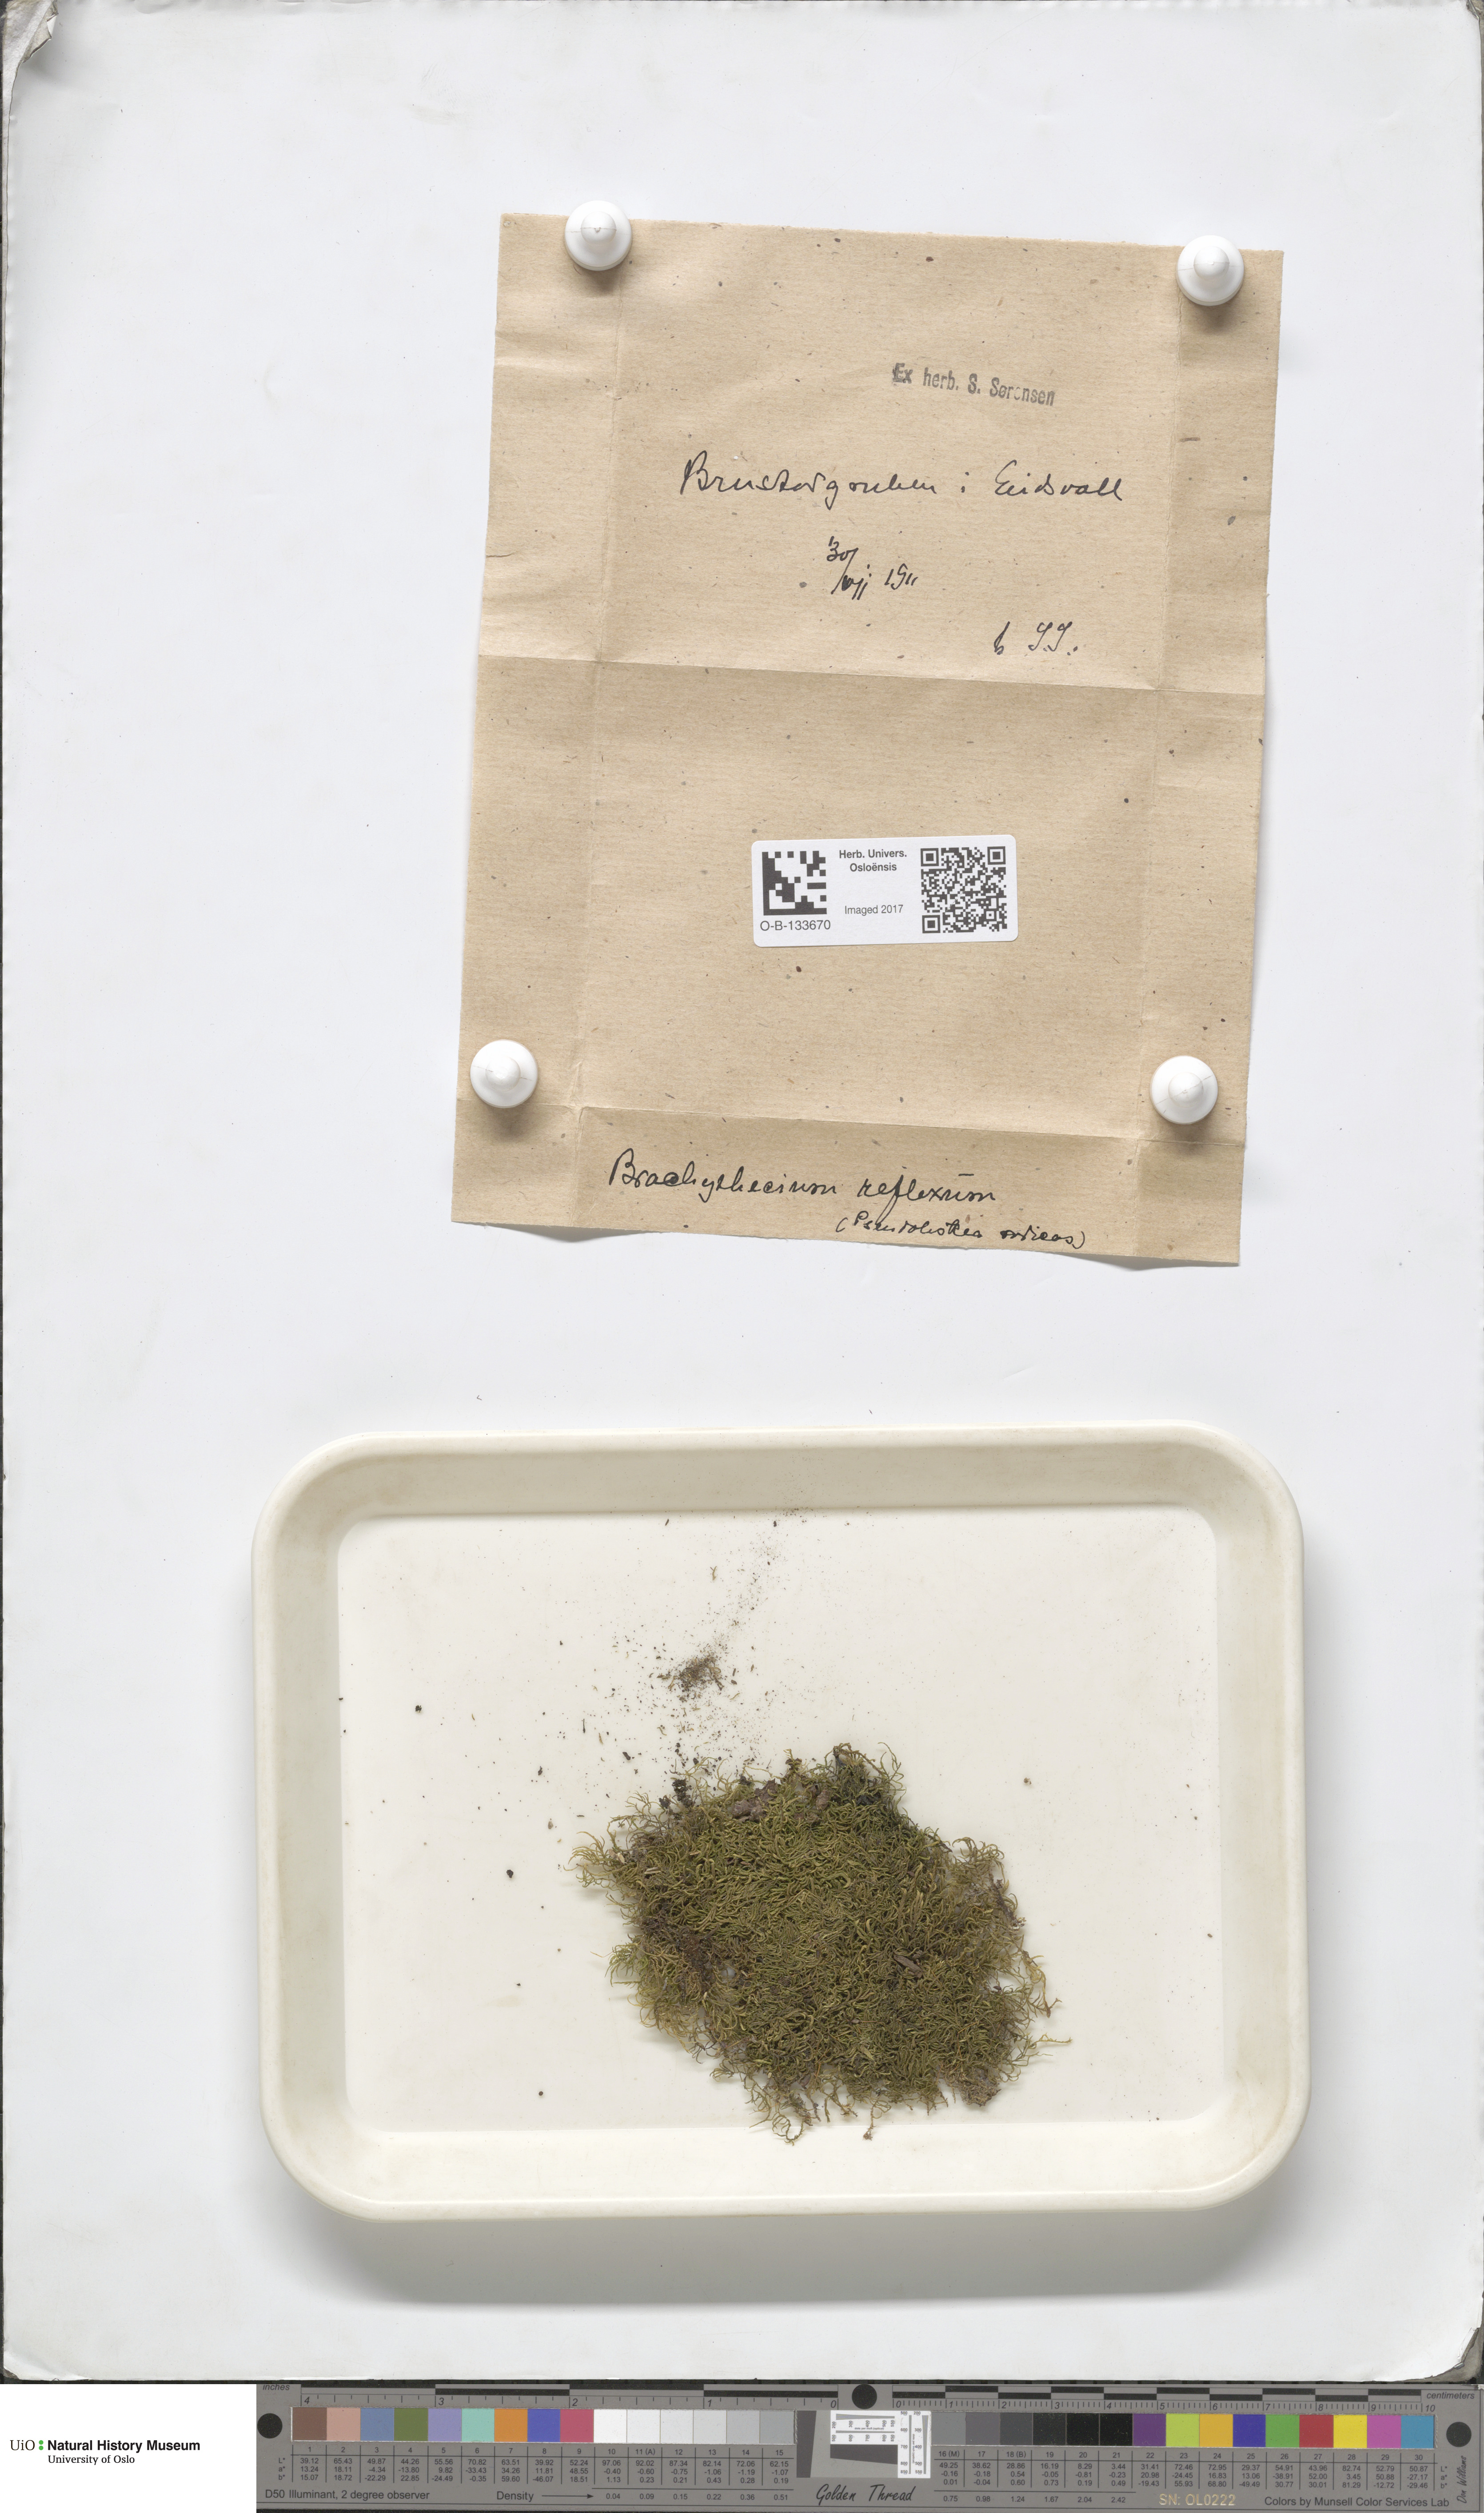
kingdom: Plantae
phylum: Bryophyta
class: Bryopsida
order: Hypnales
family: Brachytheciaceae
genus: Sciuro-hypnum
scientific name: Sciuro-hypnum reflexum
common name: Reflexed feather-moss
